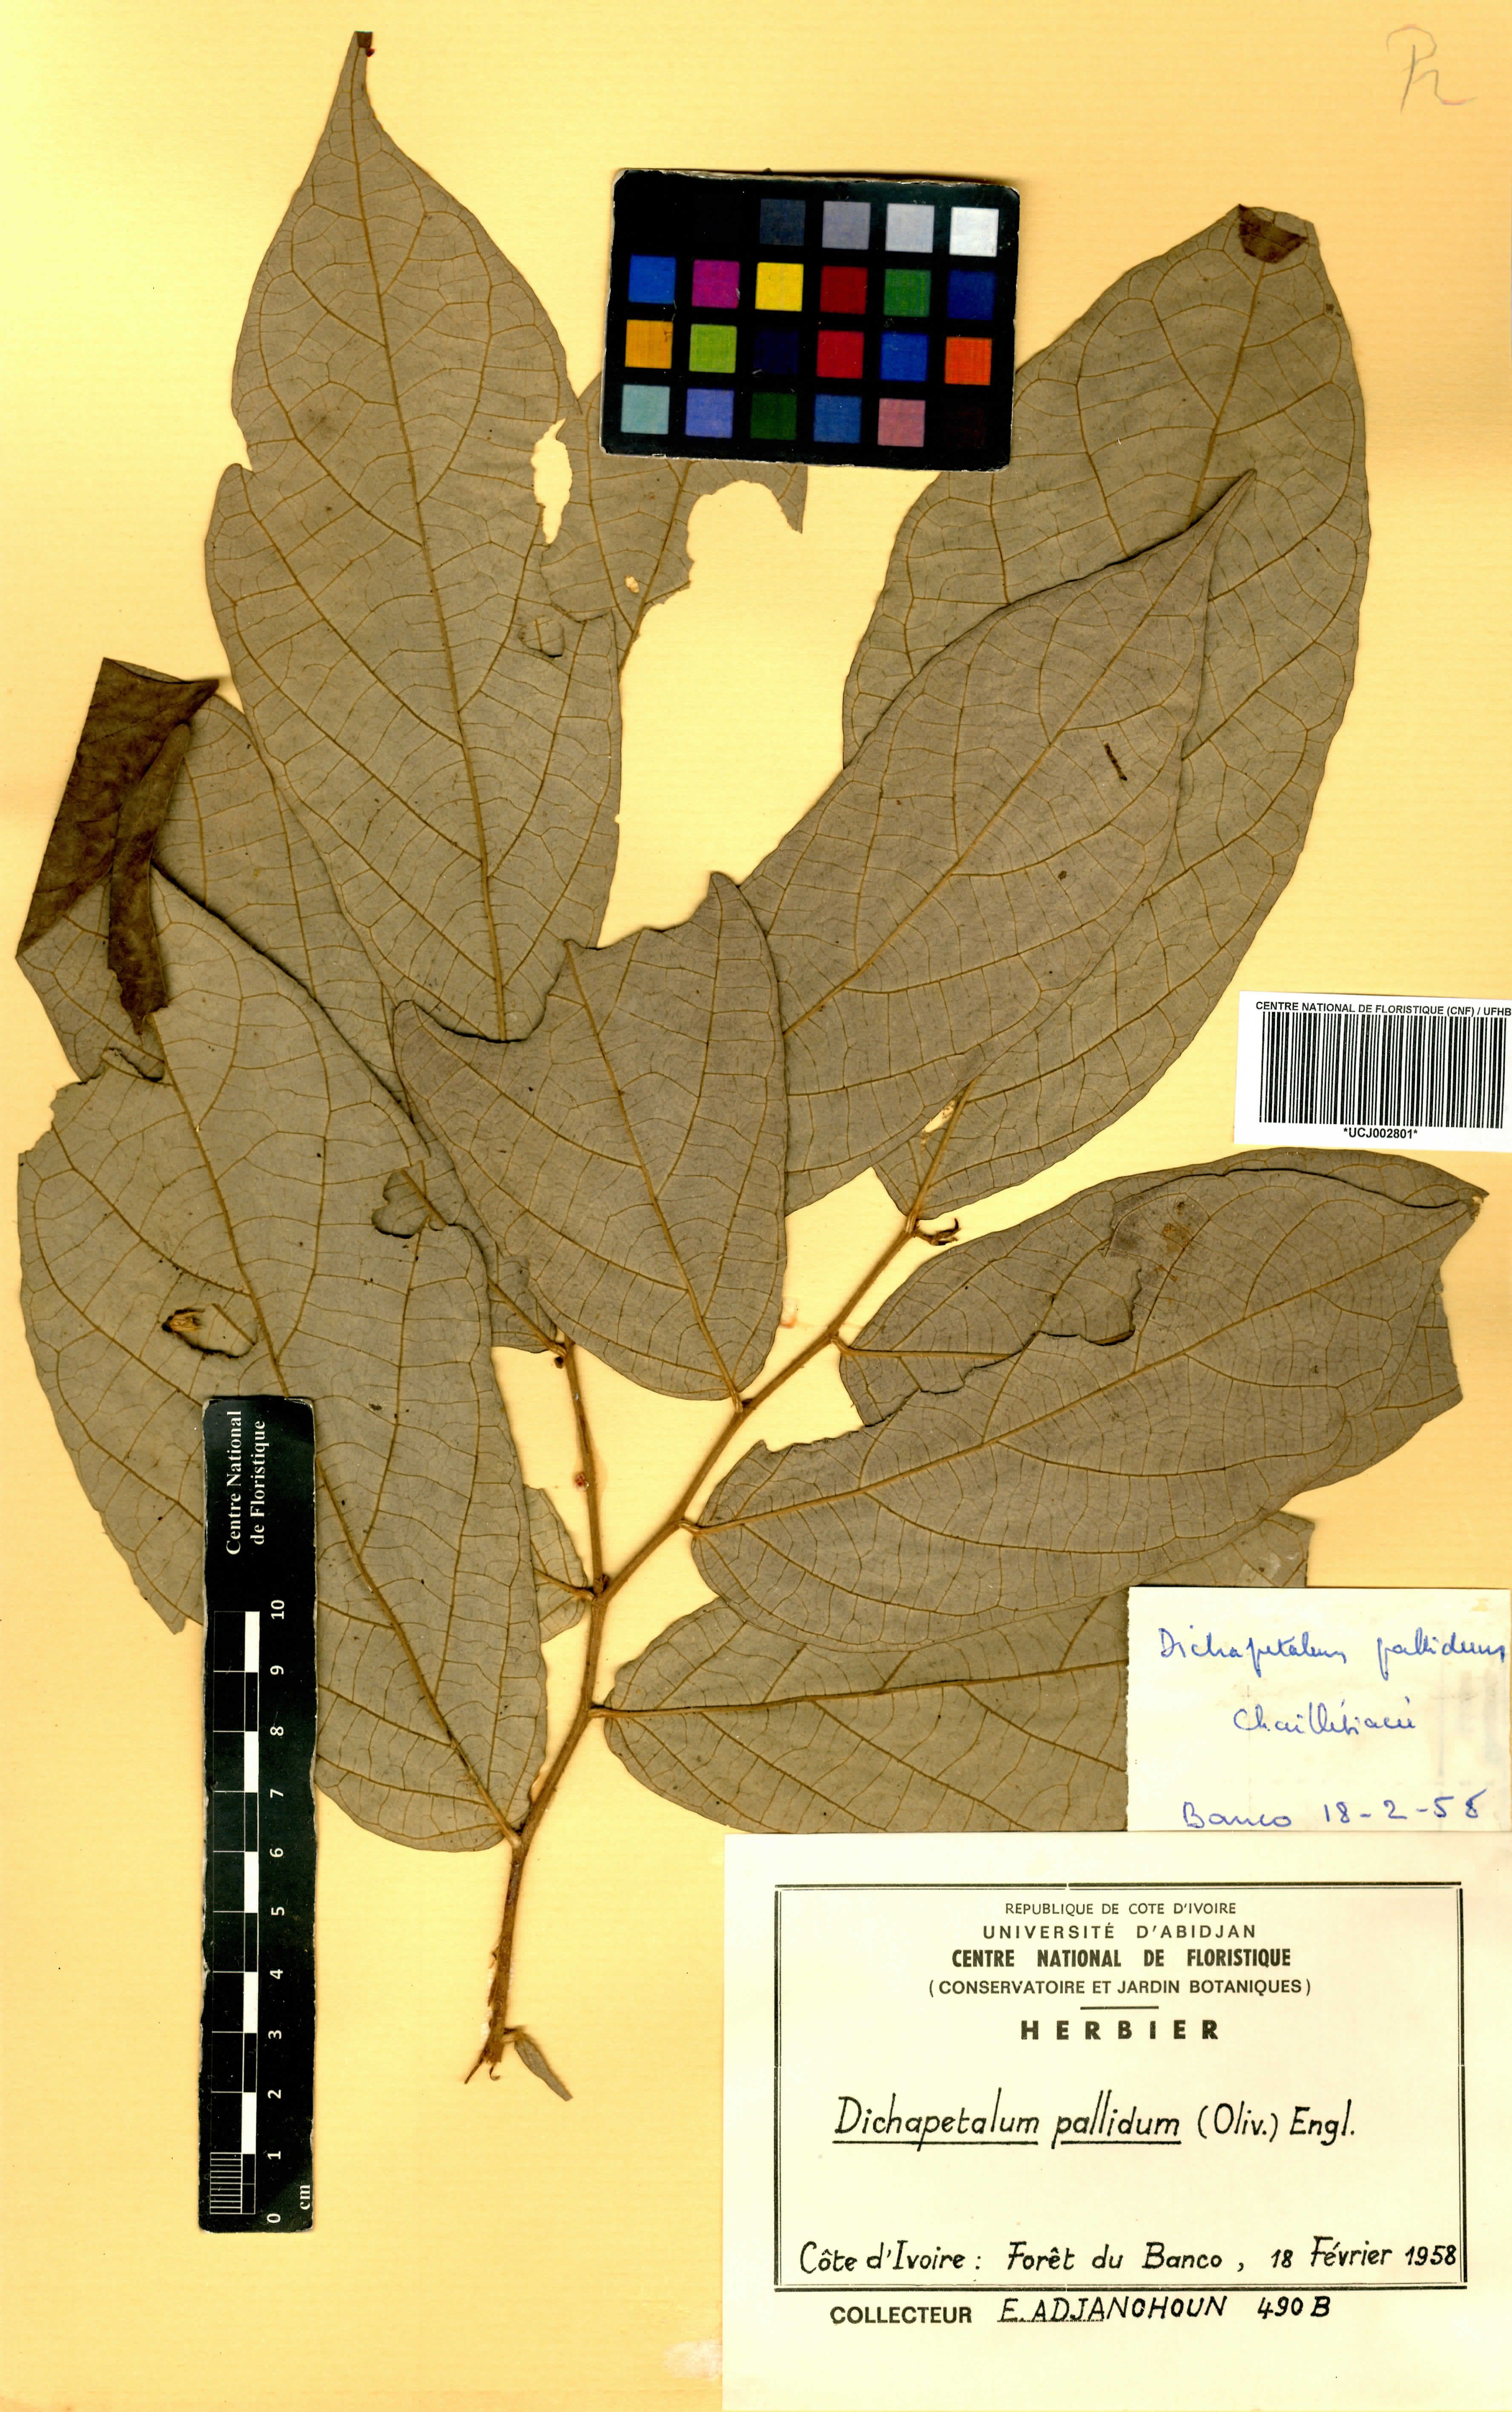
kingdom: Plantae
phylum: Tracheophyta
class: Magnoliopsida
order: Malpighiales
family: Dichapetalaceae
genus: Dichapetalum
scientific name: Dichapetalum pallidum
